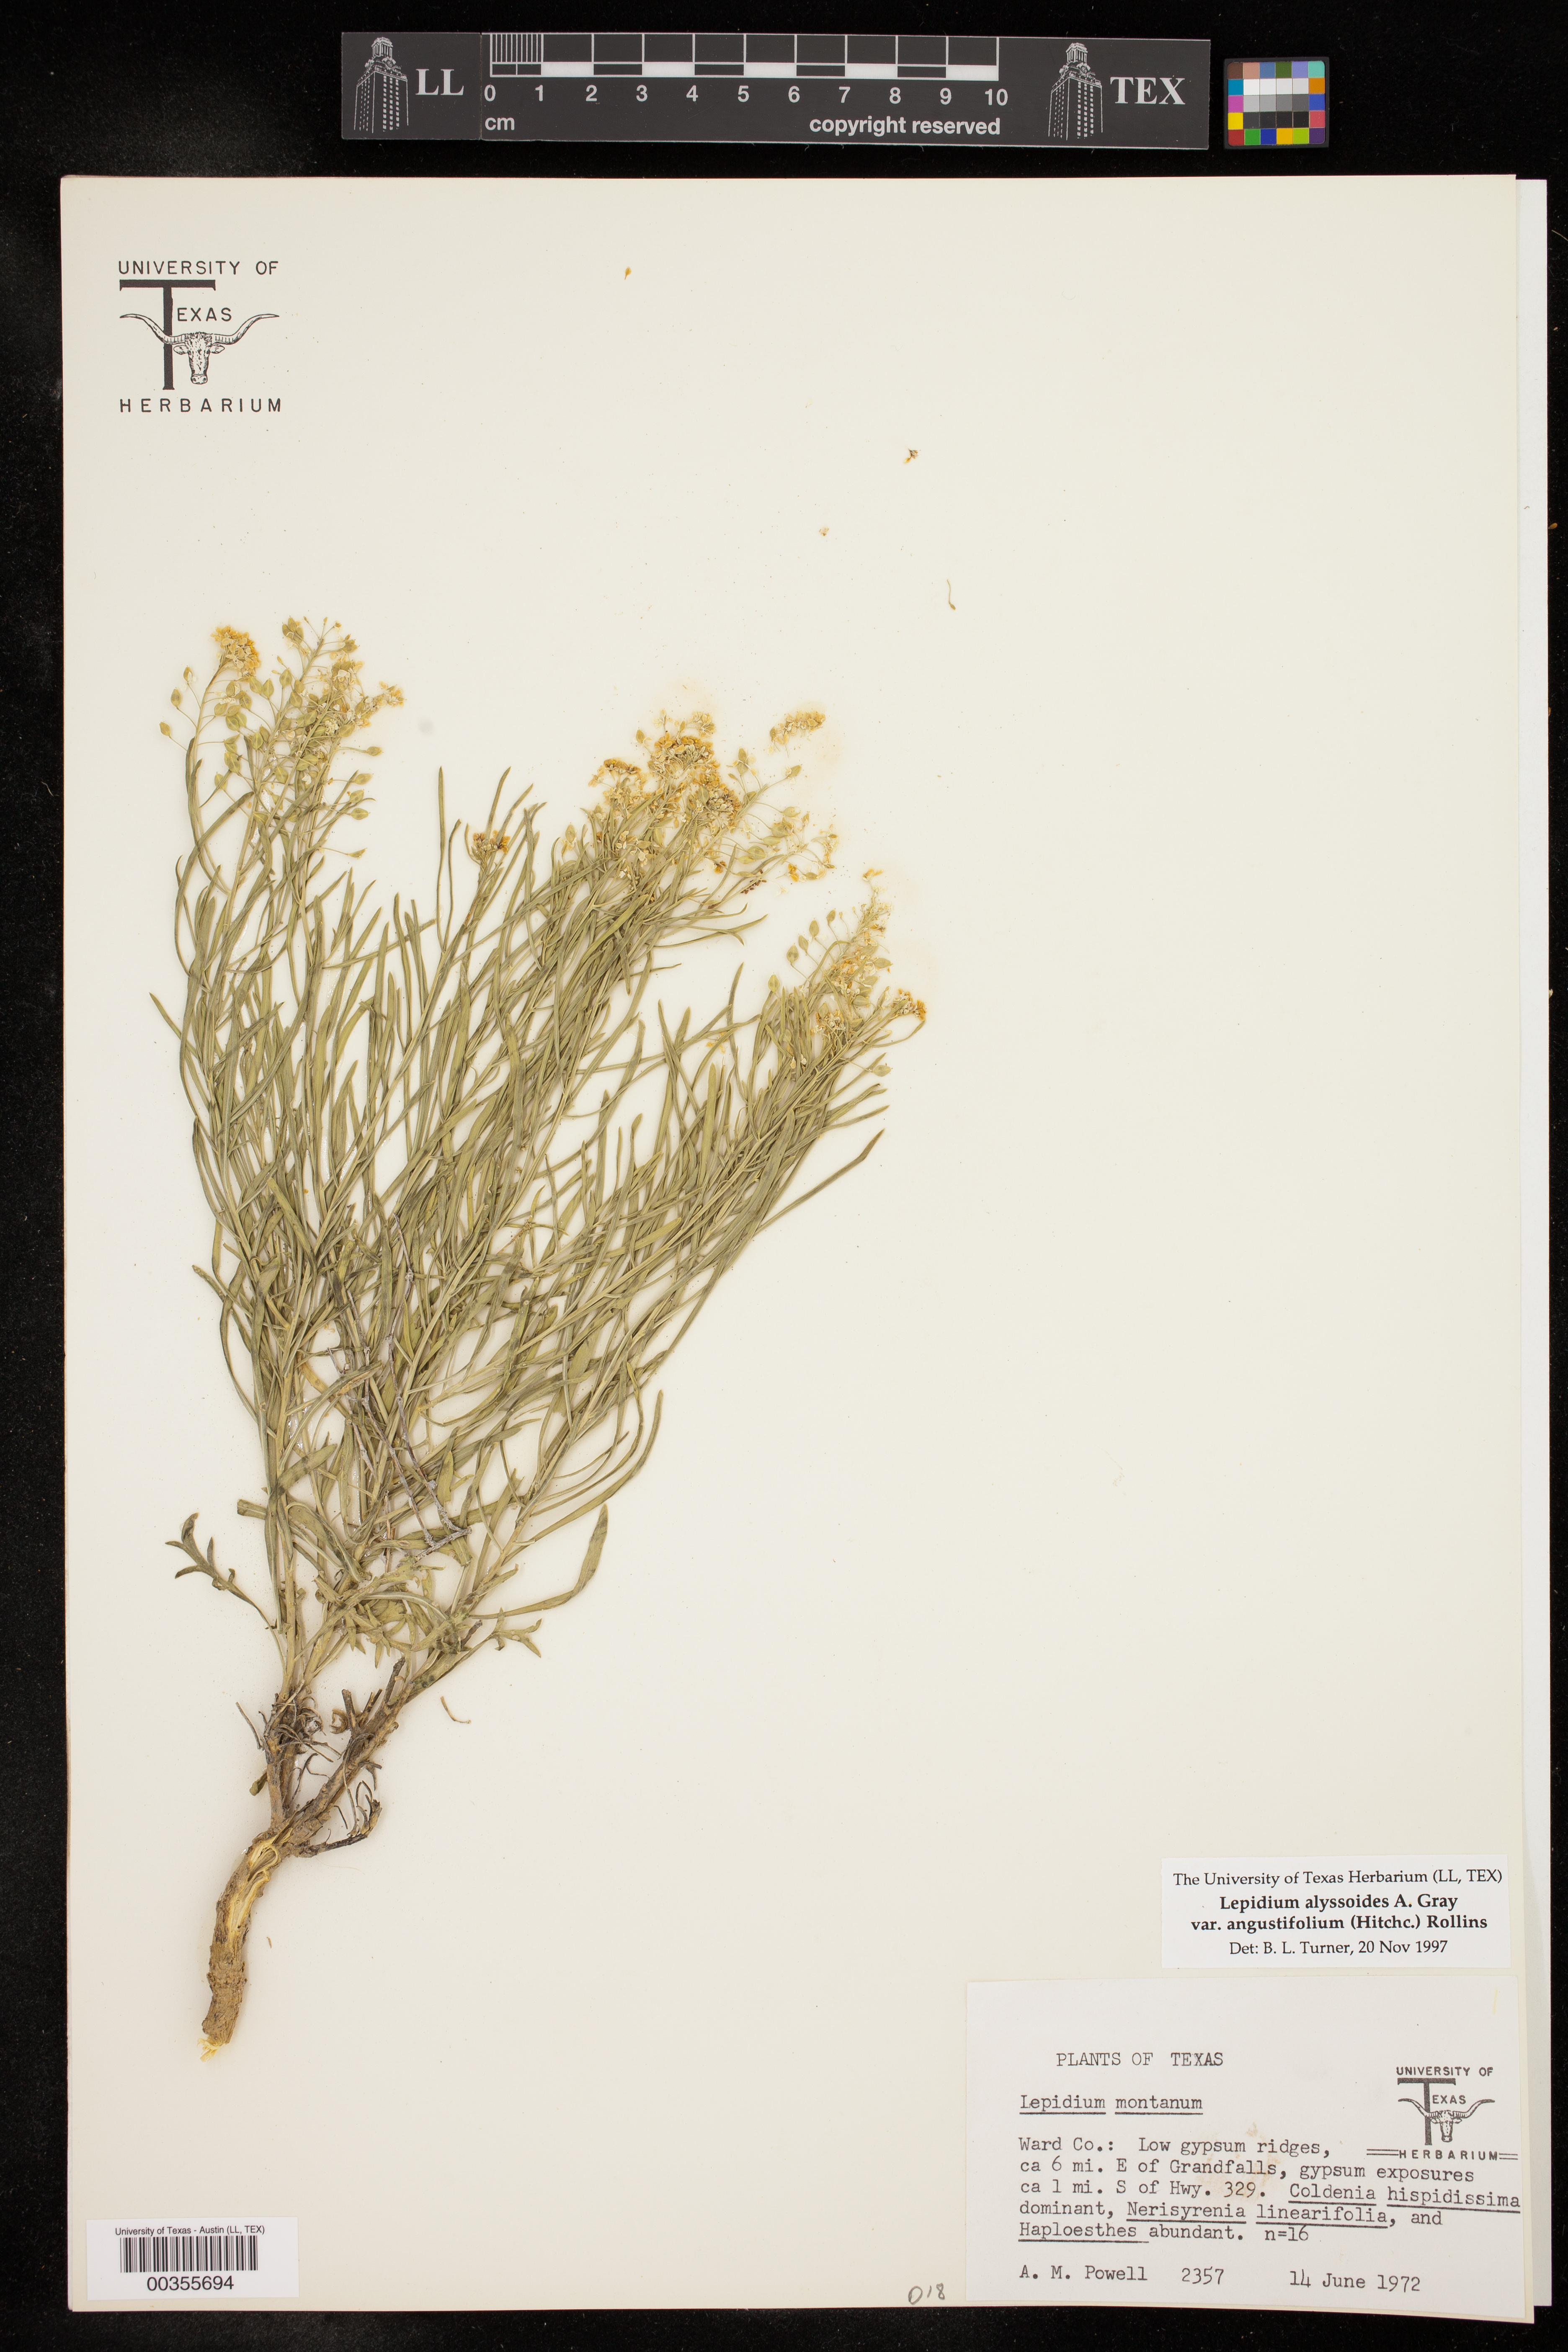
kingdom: Plantae
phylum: Tracheophyta
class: Magnoliopsida
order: Brassicales
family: Brassicaceae
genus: Lepidium
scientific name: Lepidium alyssoides
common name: Mesa pepperweed
